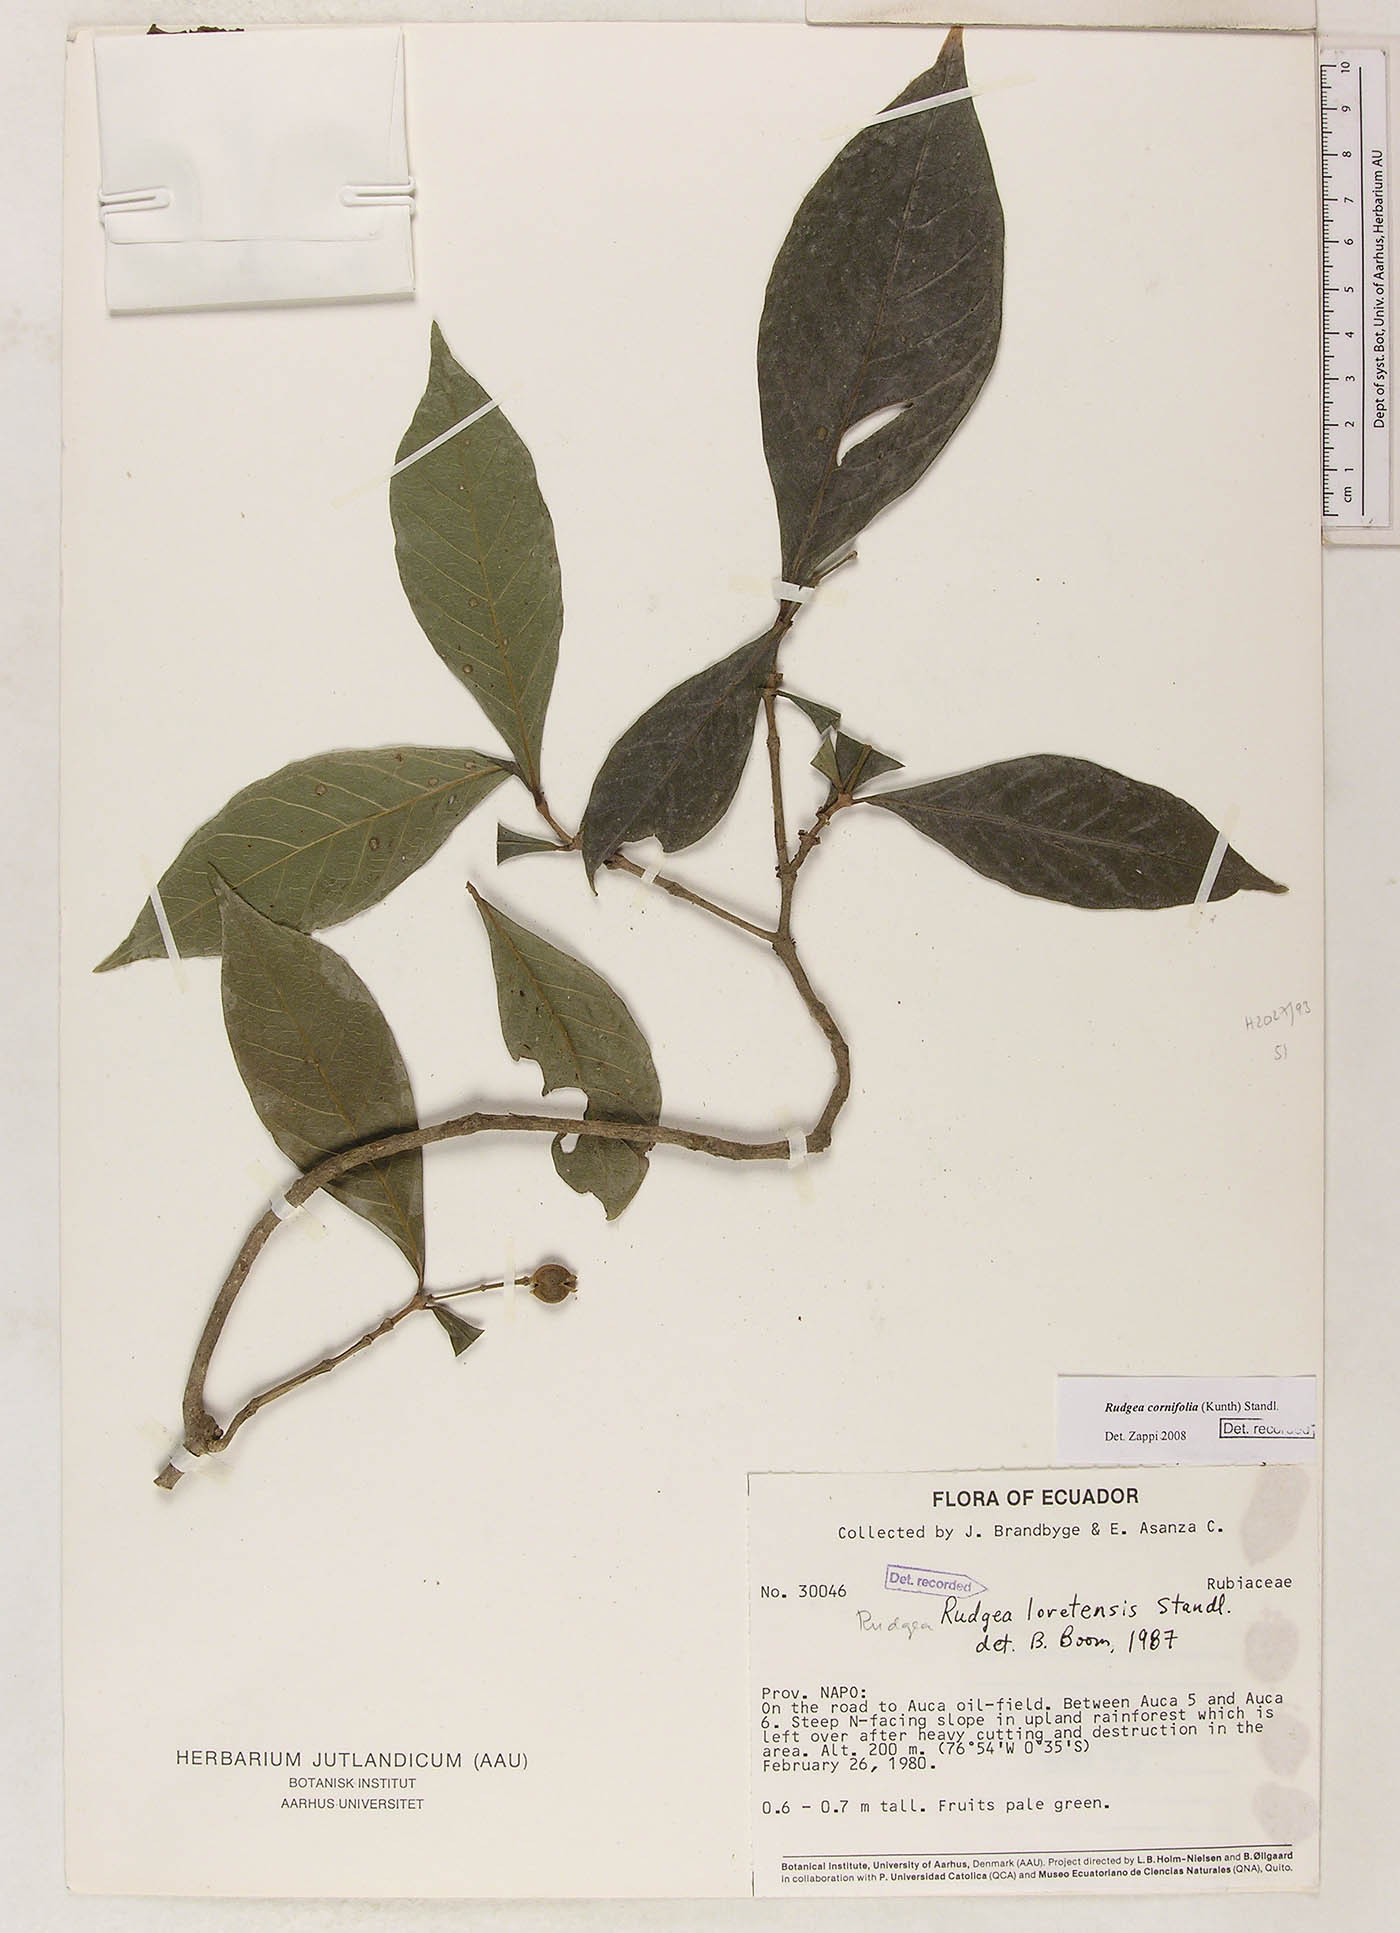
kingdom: Plantae
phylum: Tracheophyta
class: Magnoliopsida
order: Gentianales
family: Rubiaceae
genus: Rudgea
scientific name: Rudgea cornifolia
